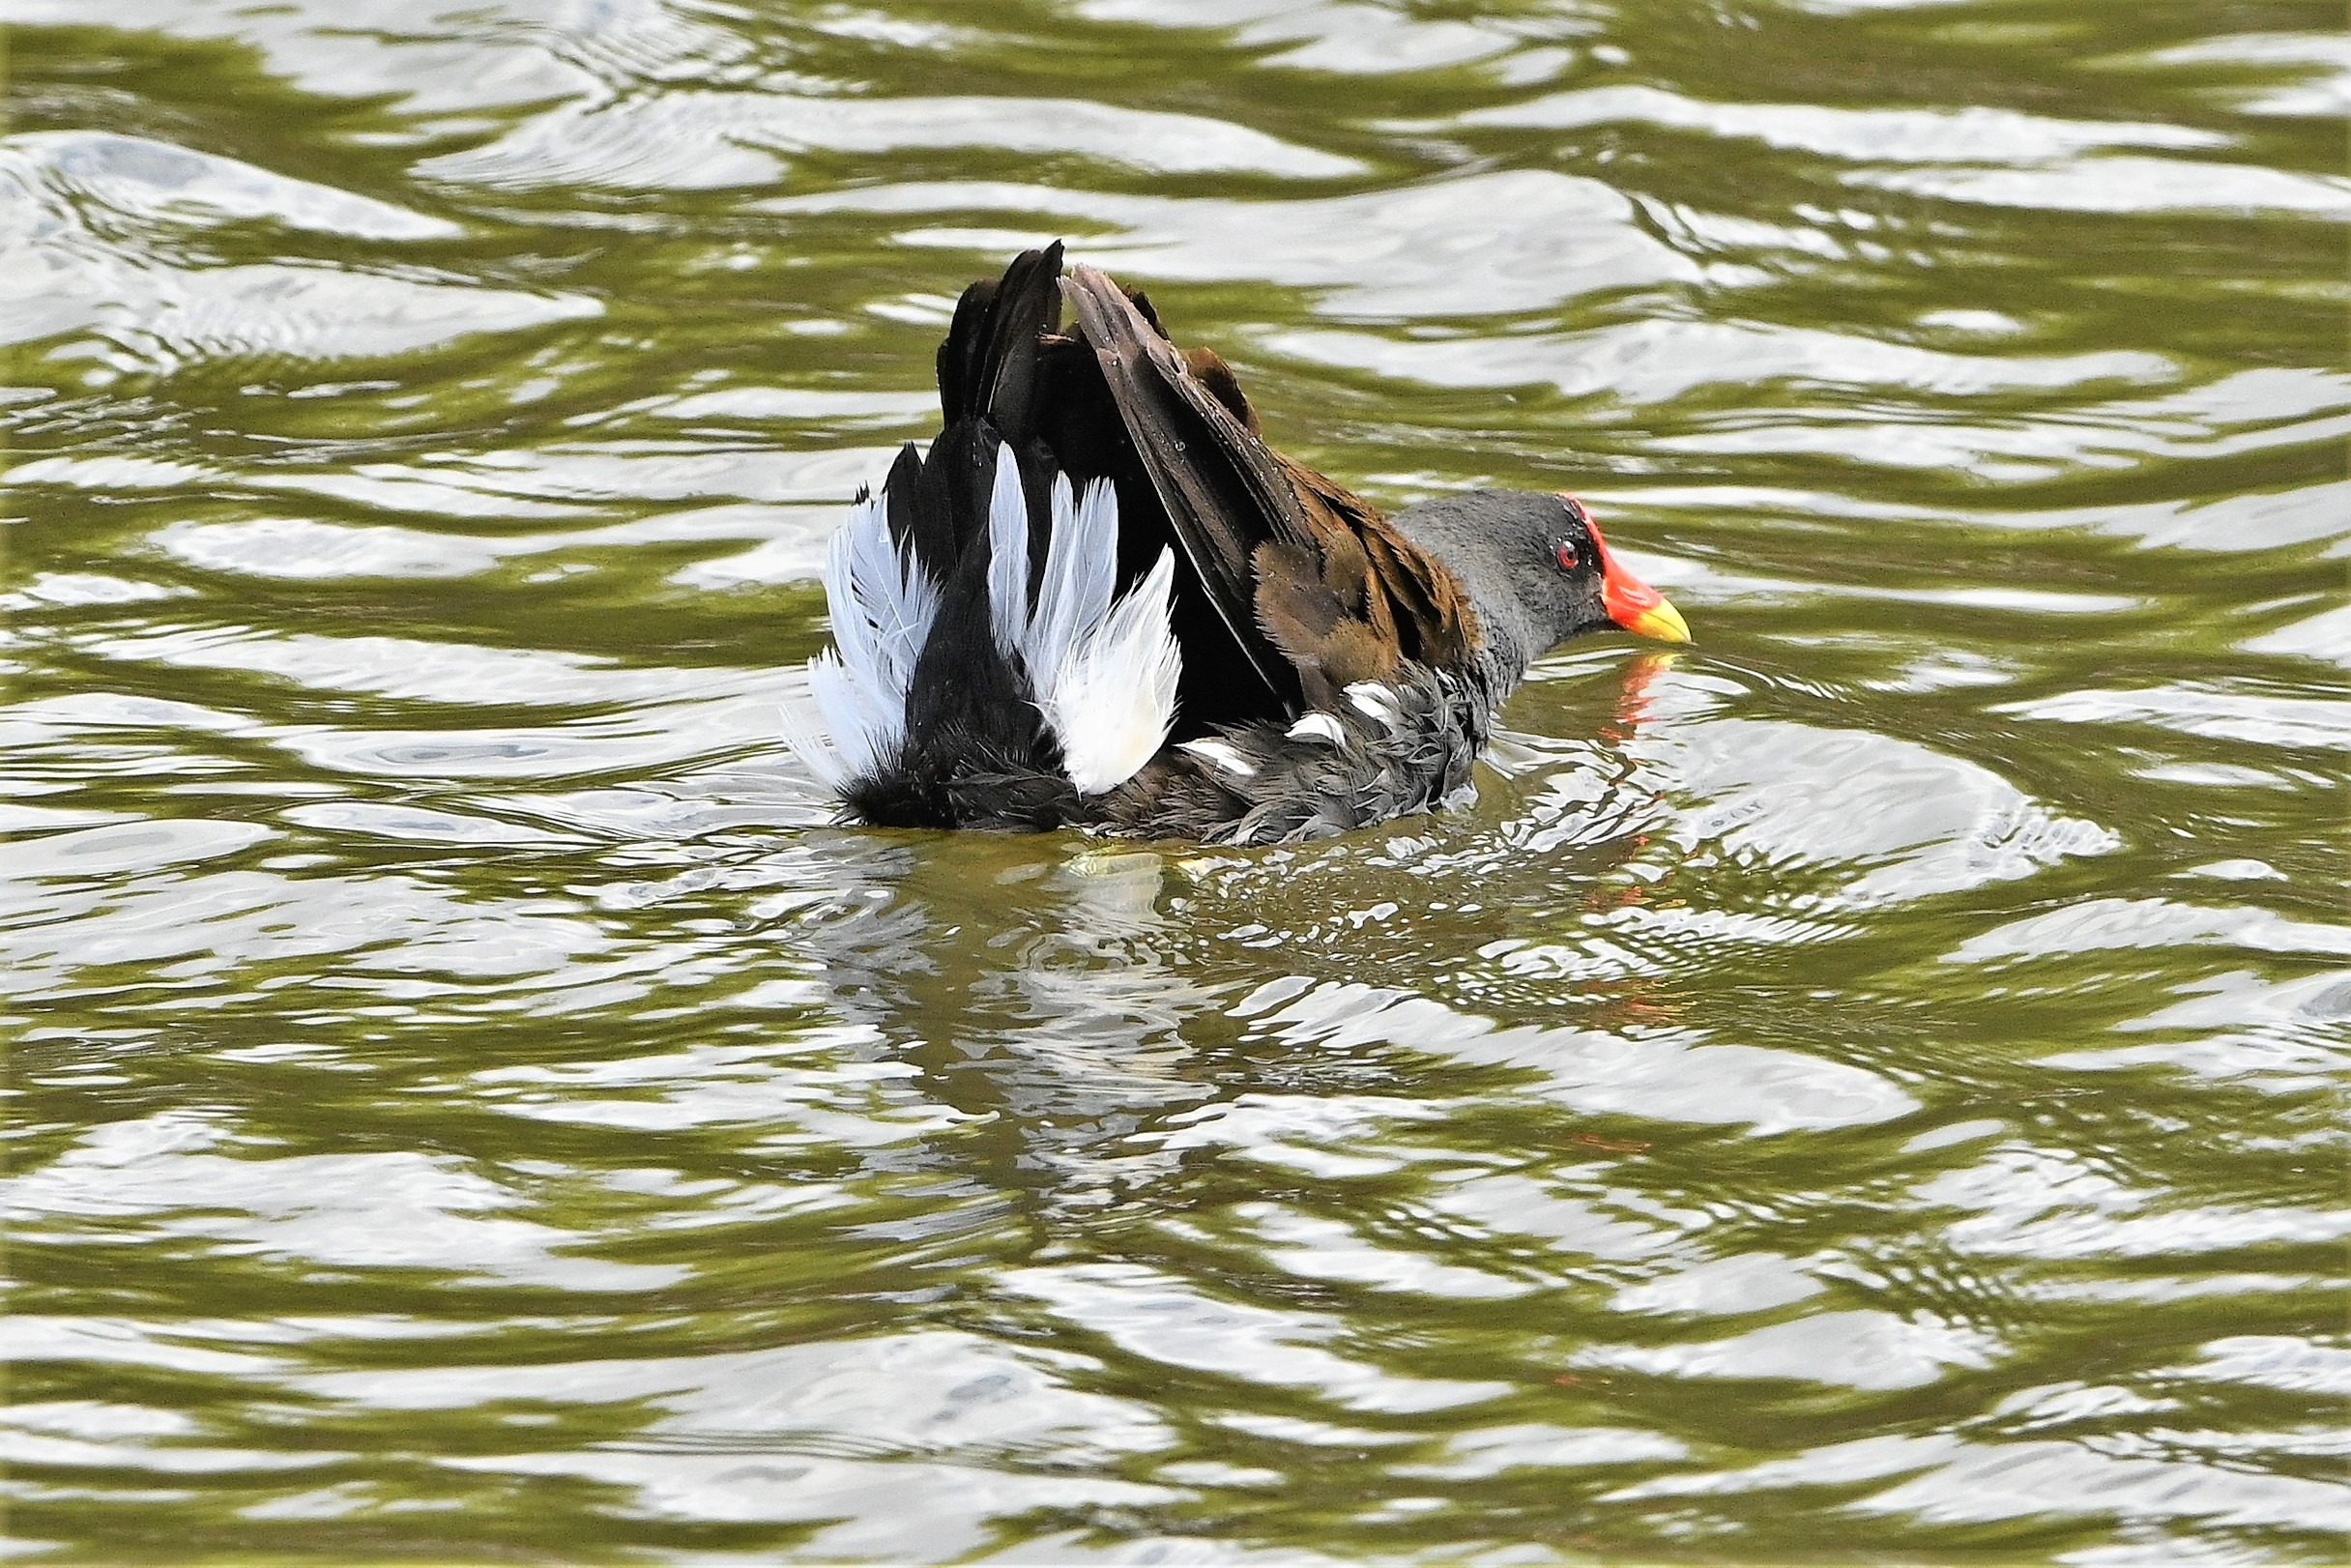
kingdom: Animalia
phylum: Chordata
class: Aves
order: Gruiformes
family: Rallidae
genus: Gallinula
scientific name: Gallinula chloropus
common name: Grønbenet rørhøne
